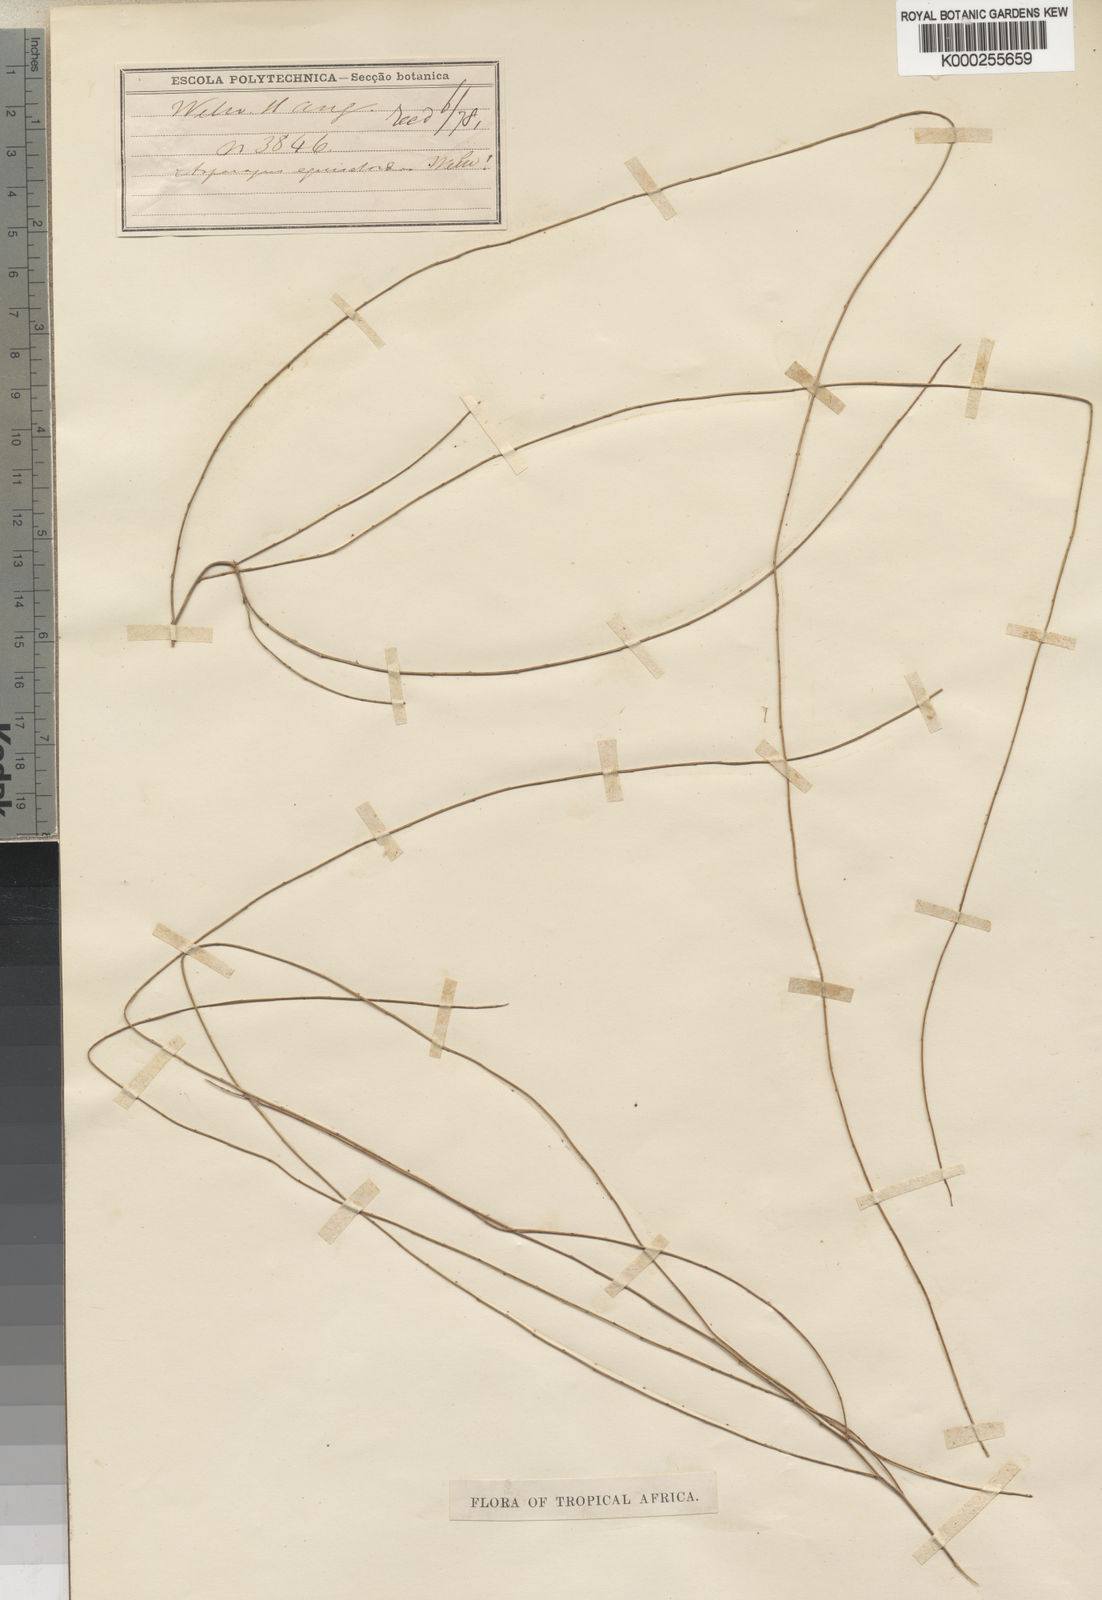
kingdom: Plantae
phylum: Tracheophyta
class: Liliopsida
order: Asparagales
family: Asparagaceae
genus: Asparagus
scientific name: Asparagus equisetoides
